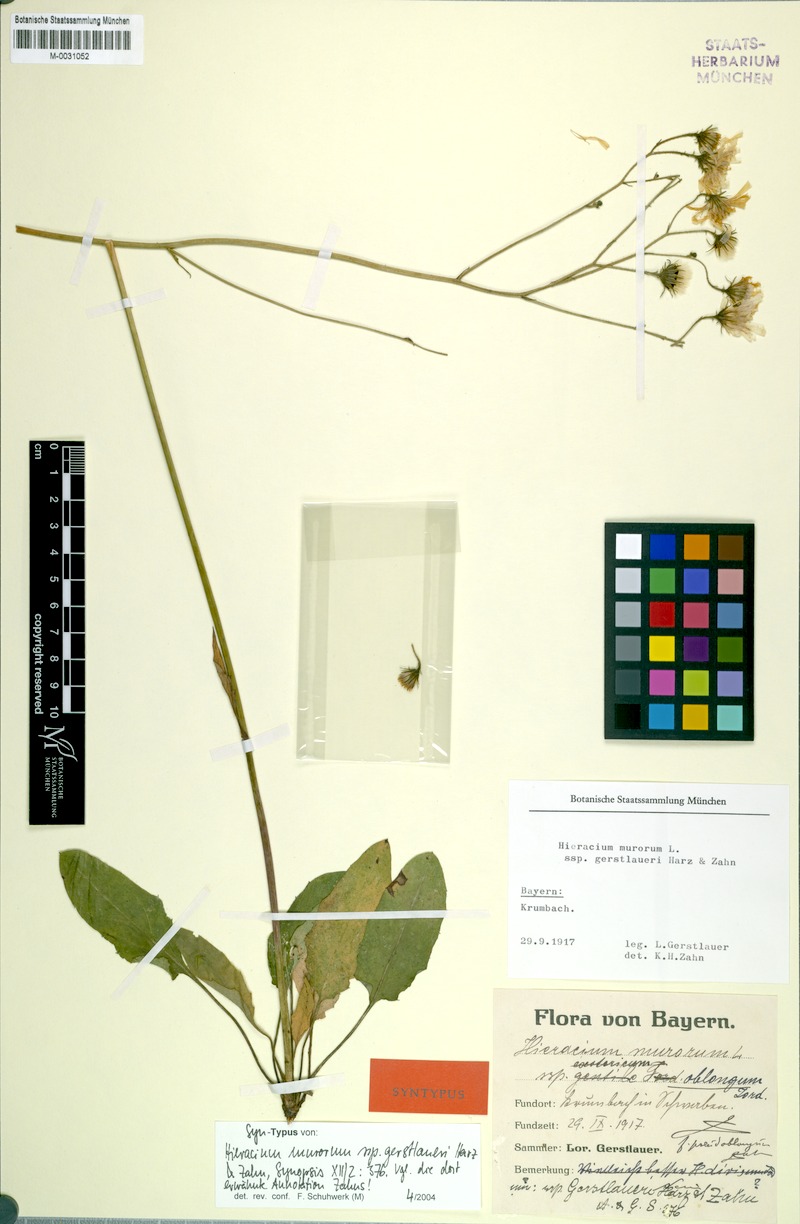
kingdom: Plantae
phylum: Tracheophyta
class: Magnoliopsida
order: Asterales
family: Asteraceae
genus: Hieracium
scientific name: Hieracium murorum
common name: Wall hawkweed
